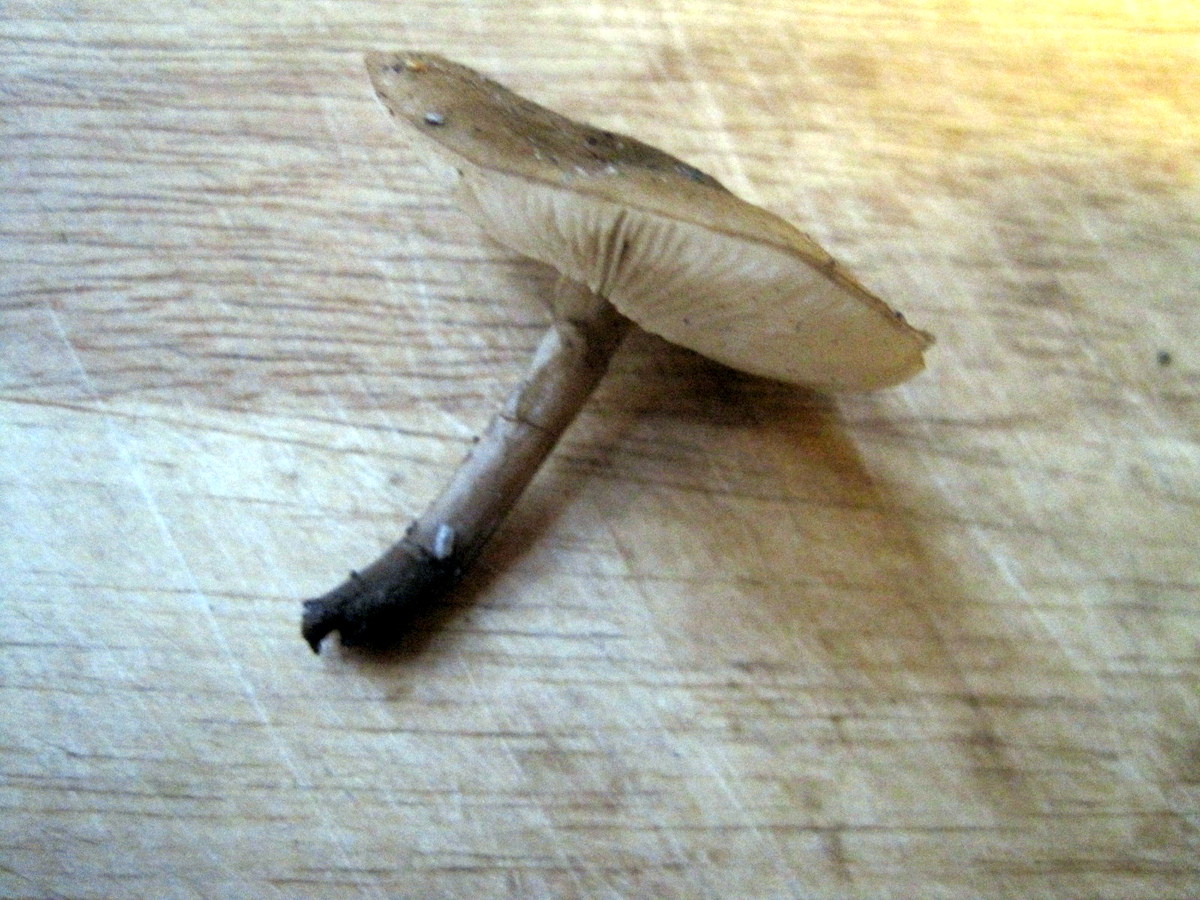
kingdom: Fungi
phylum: Basidiomycota
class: Agaricomycetes
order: Agaricales
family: Tricholomataceae
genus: Melanoleuca
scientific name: Melanoleuca polioleuca
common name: almindelig munkehat
